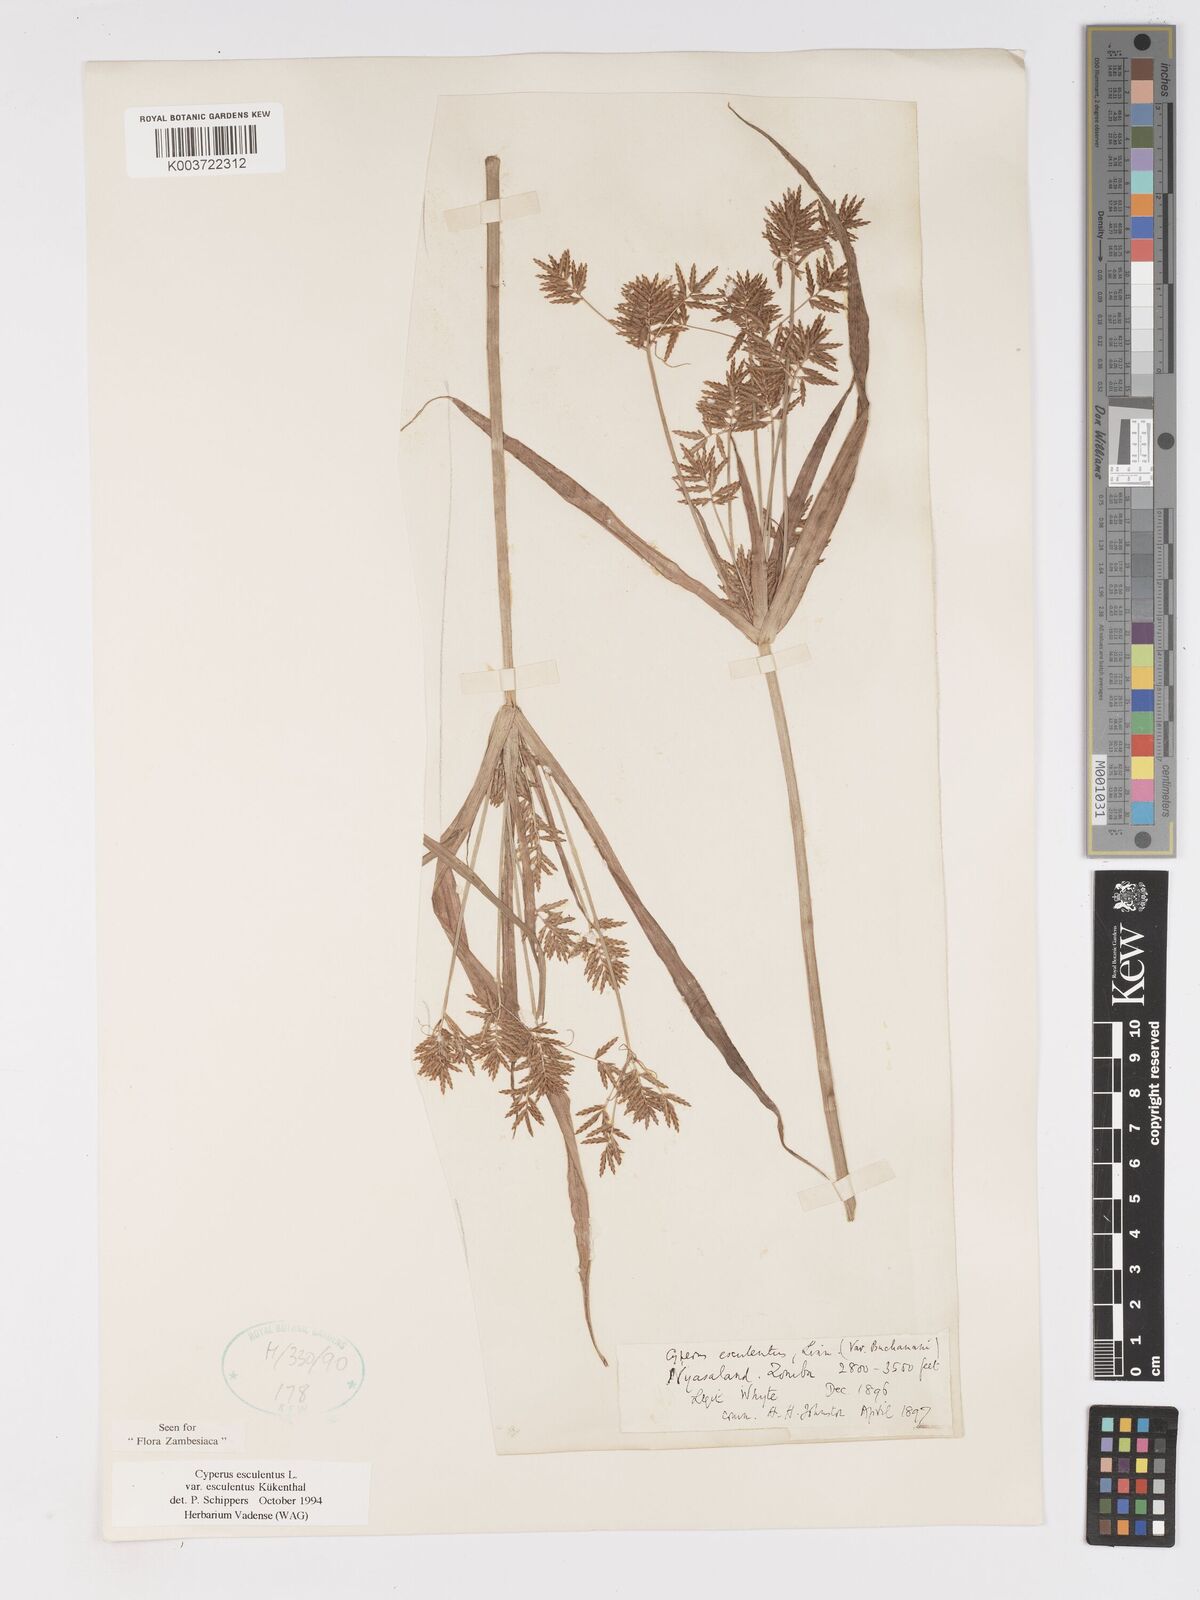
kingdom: Plantae
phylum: Tracheophyta
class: Liliopsida
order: Poales
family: Cyperaceae
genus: Cyperus
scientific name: Cyperus esculentus
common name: Yellow nutsedge
